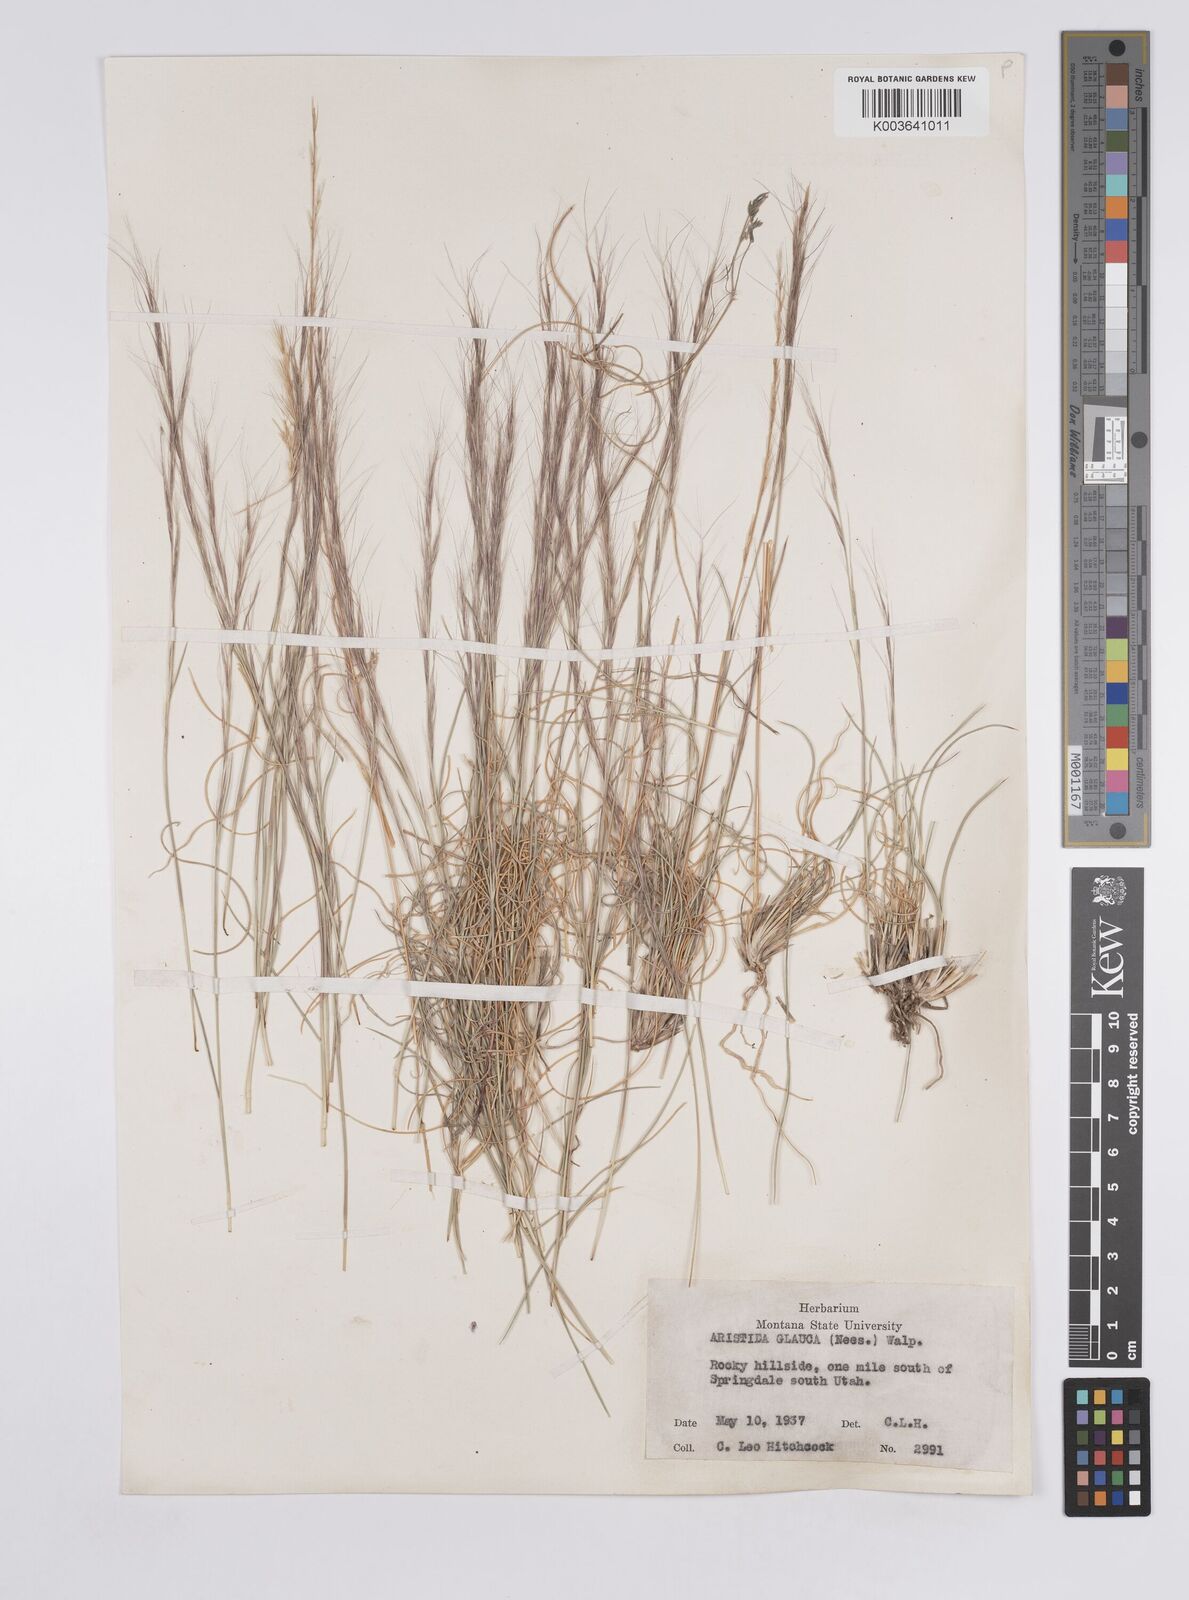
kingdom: Plantae
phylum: Tracheophyta
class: Liliopsida
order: Poales
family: Poaceae
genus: Aristida
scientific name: Aristida purpurea
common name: Purple threeawn
